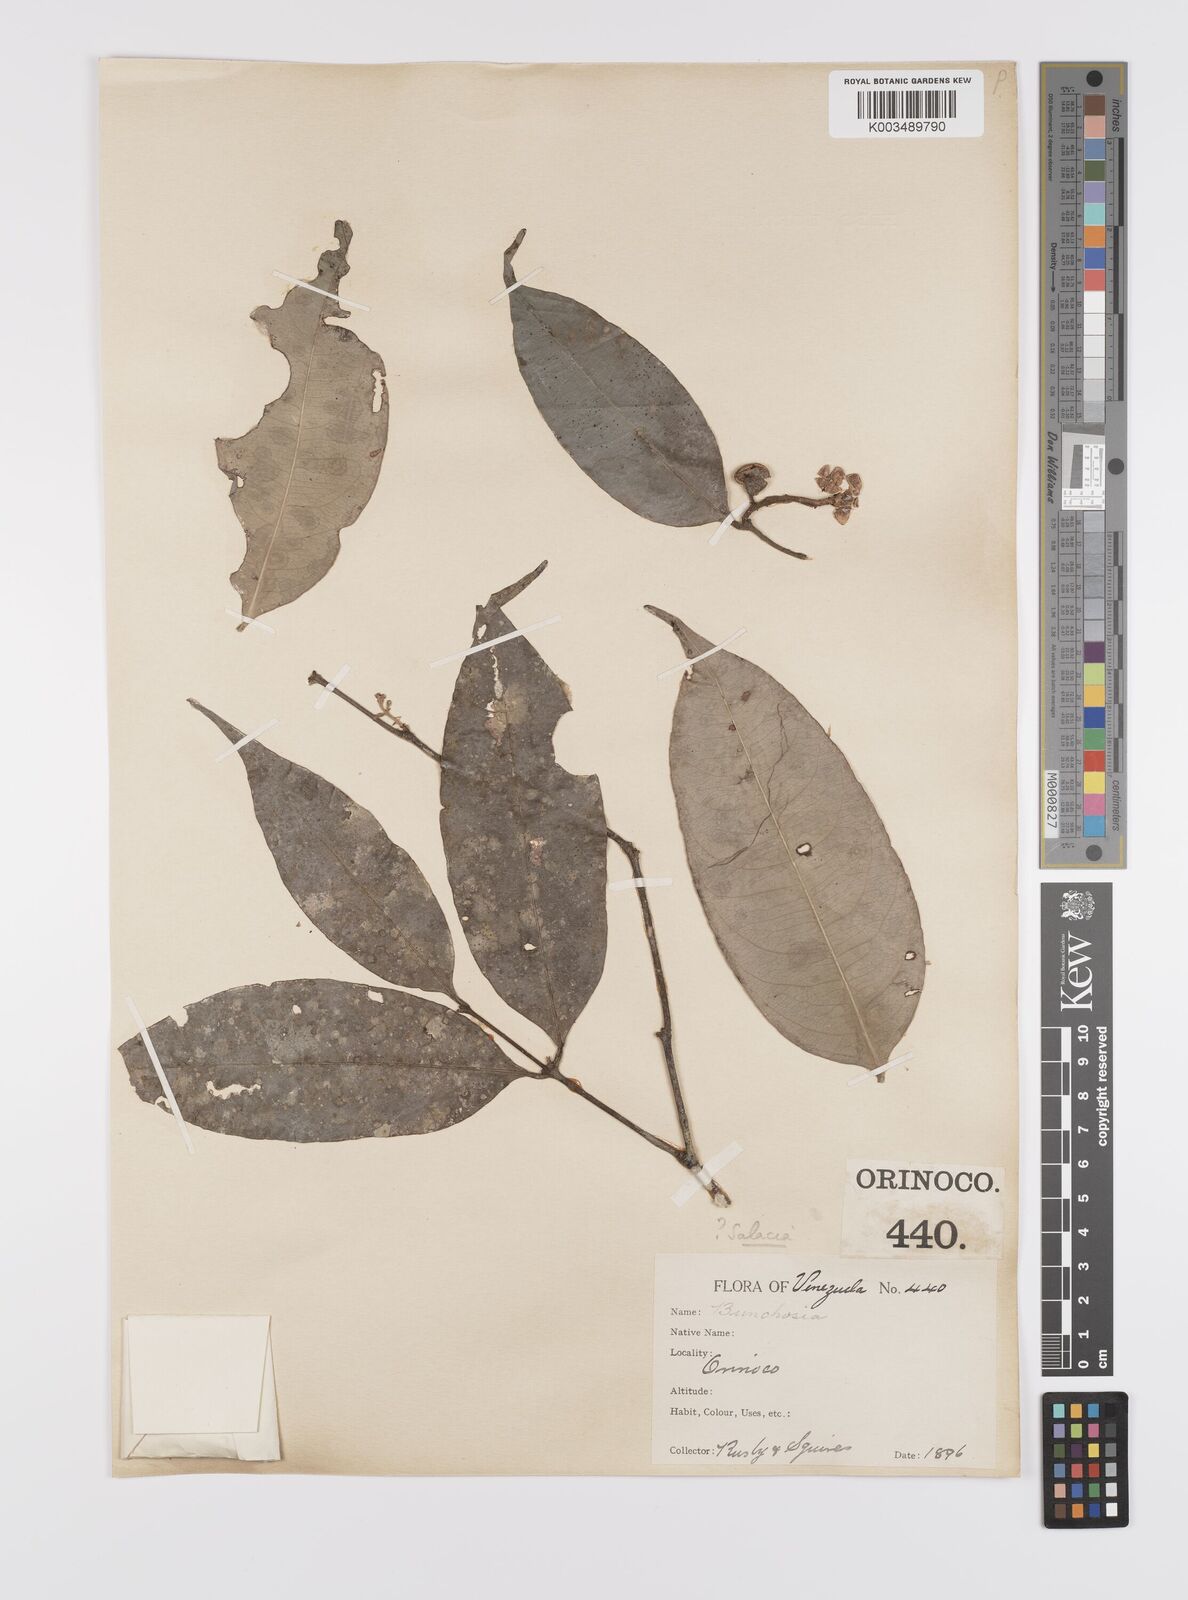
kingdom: Plantae
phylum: Tracheophyta
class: Magnoliopsida
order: Celastrales
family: Celastraceae
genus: Cheiloclinium
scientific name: Cheiloclinium cognatum
